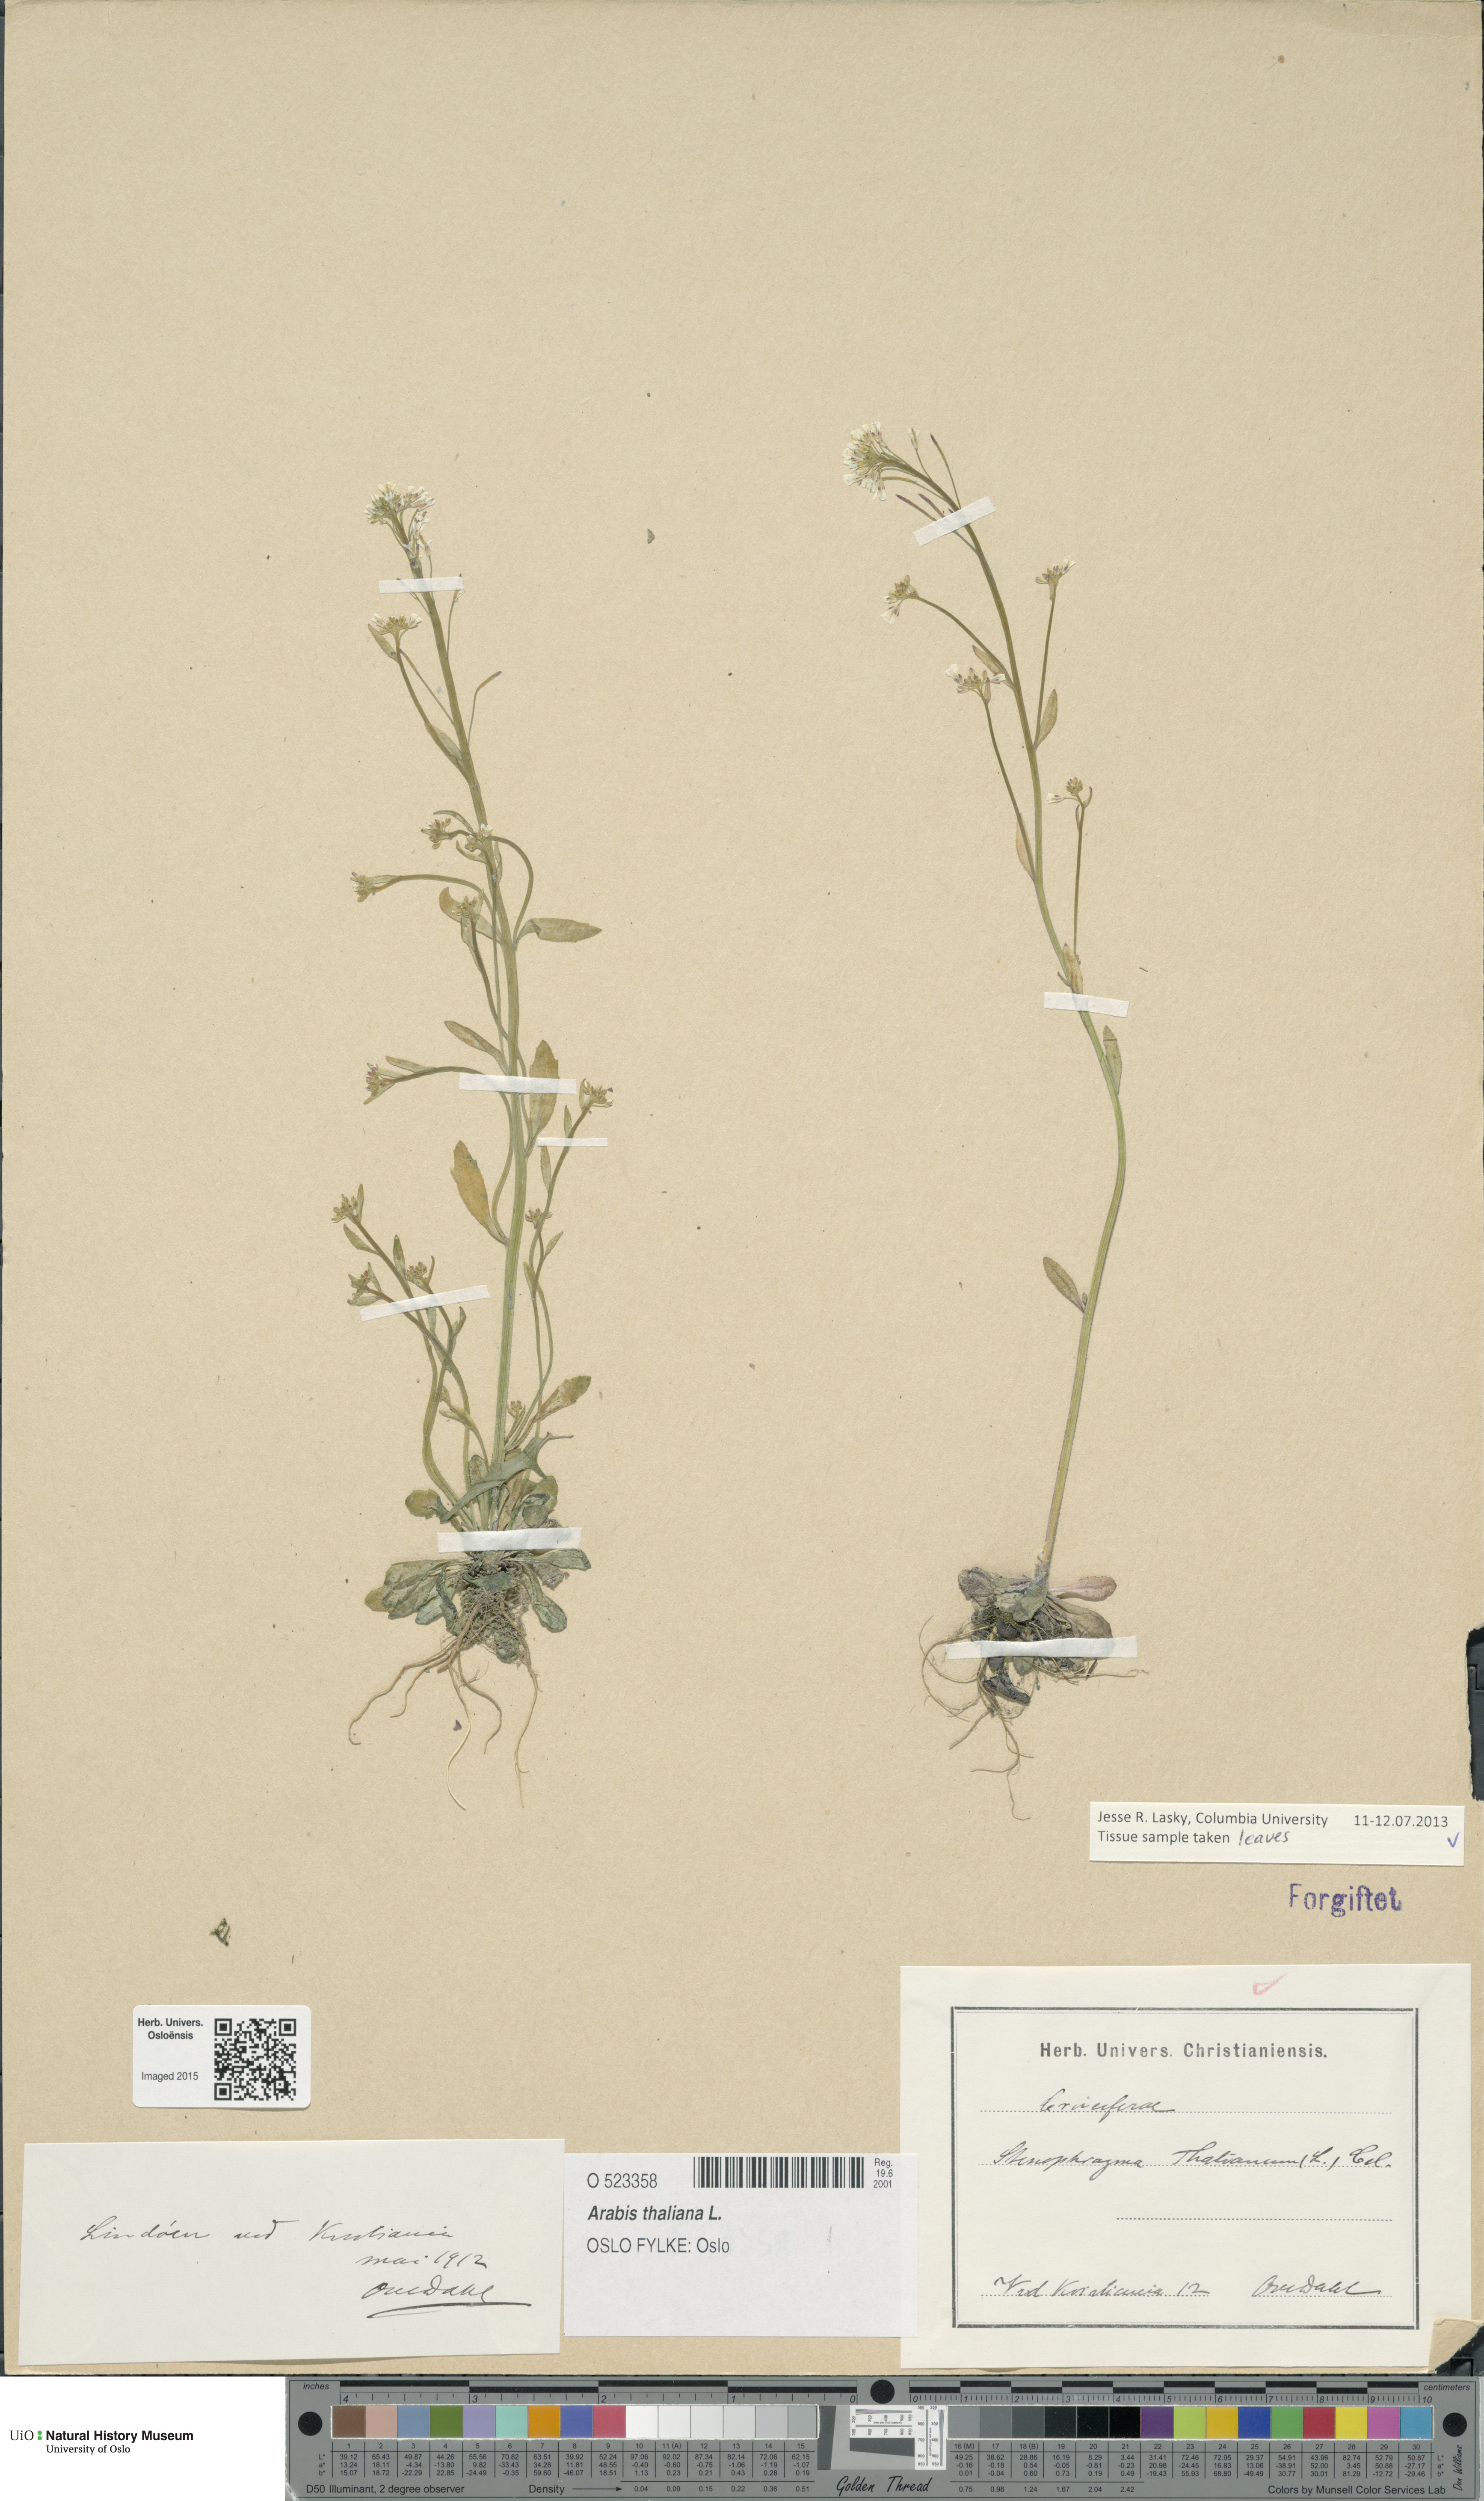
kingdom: Plantae
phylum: Tracheophyta
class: Magnoliopsida
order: Brassicales
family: Brassicaceae
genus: Arabidopsis
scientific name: Arabidopsis thaliana
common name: Thale cress
